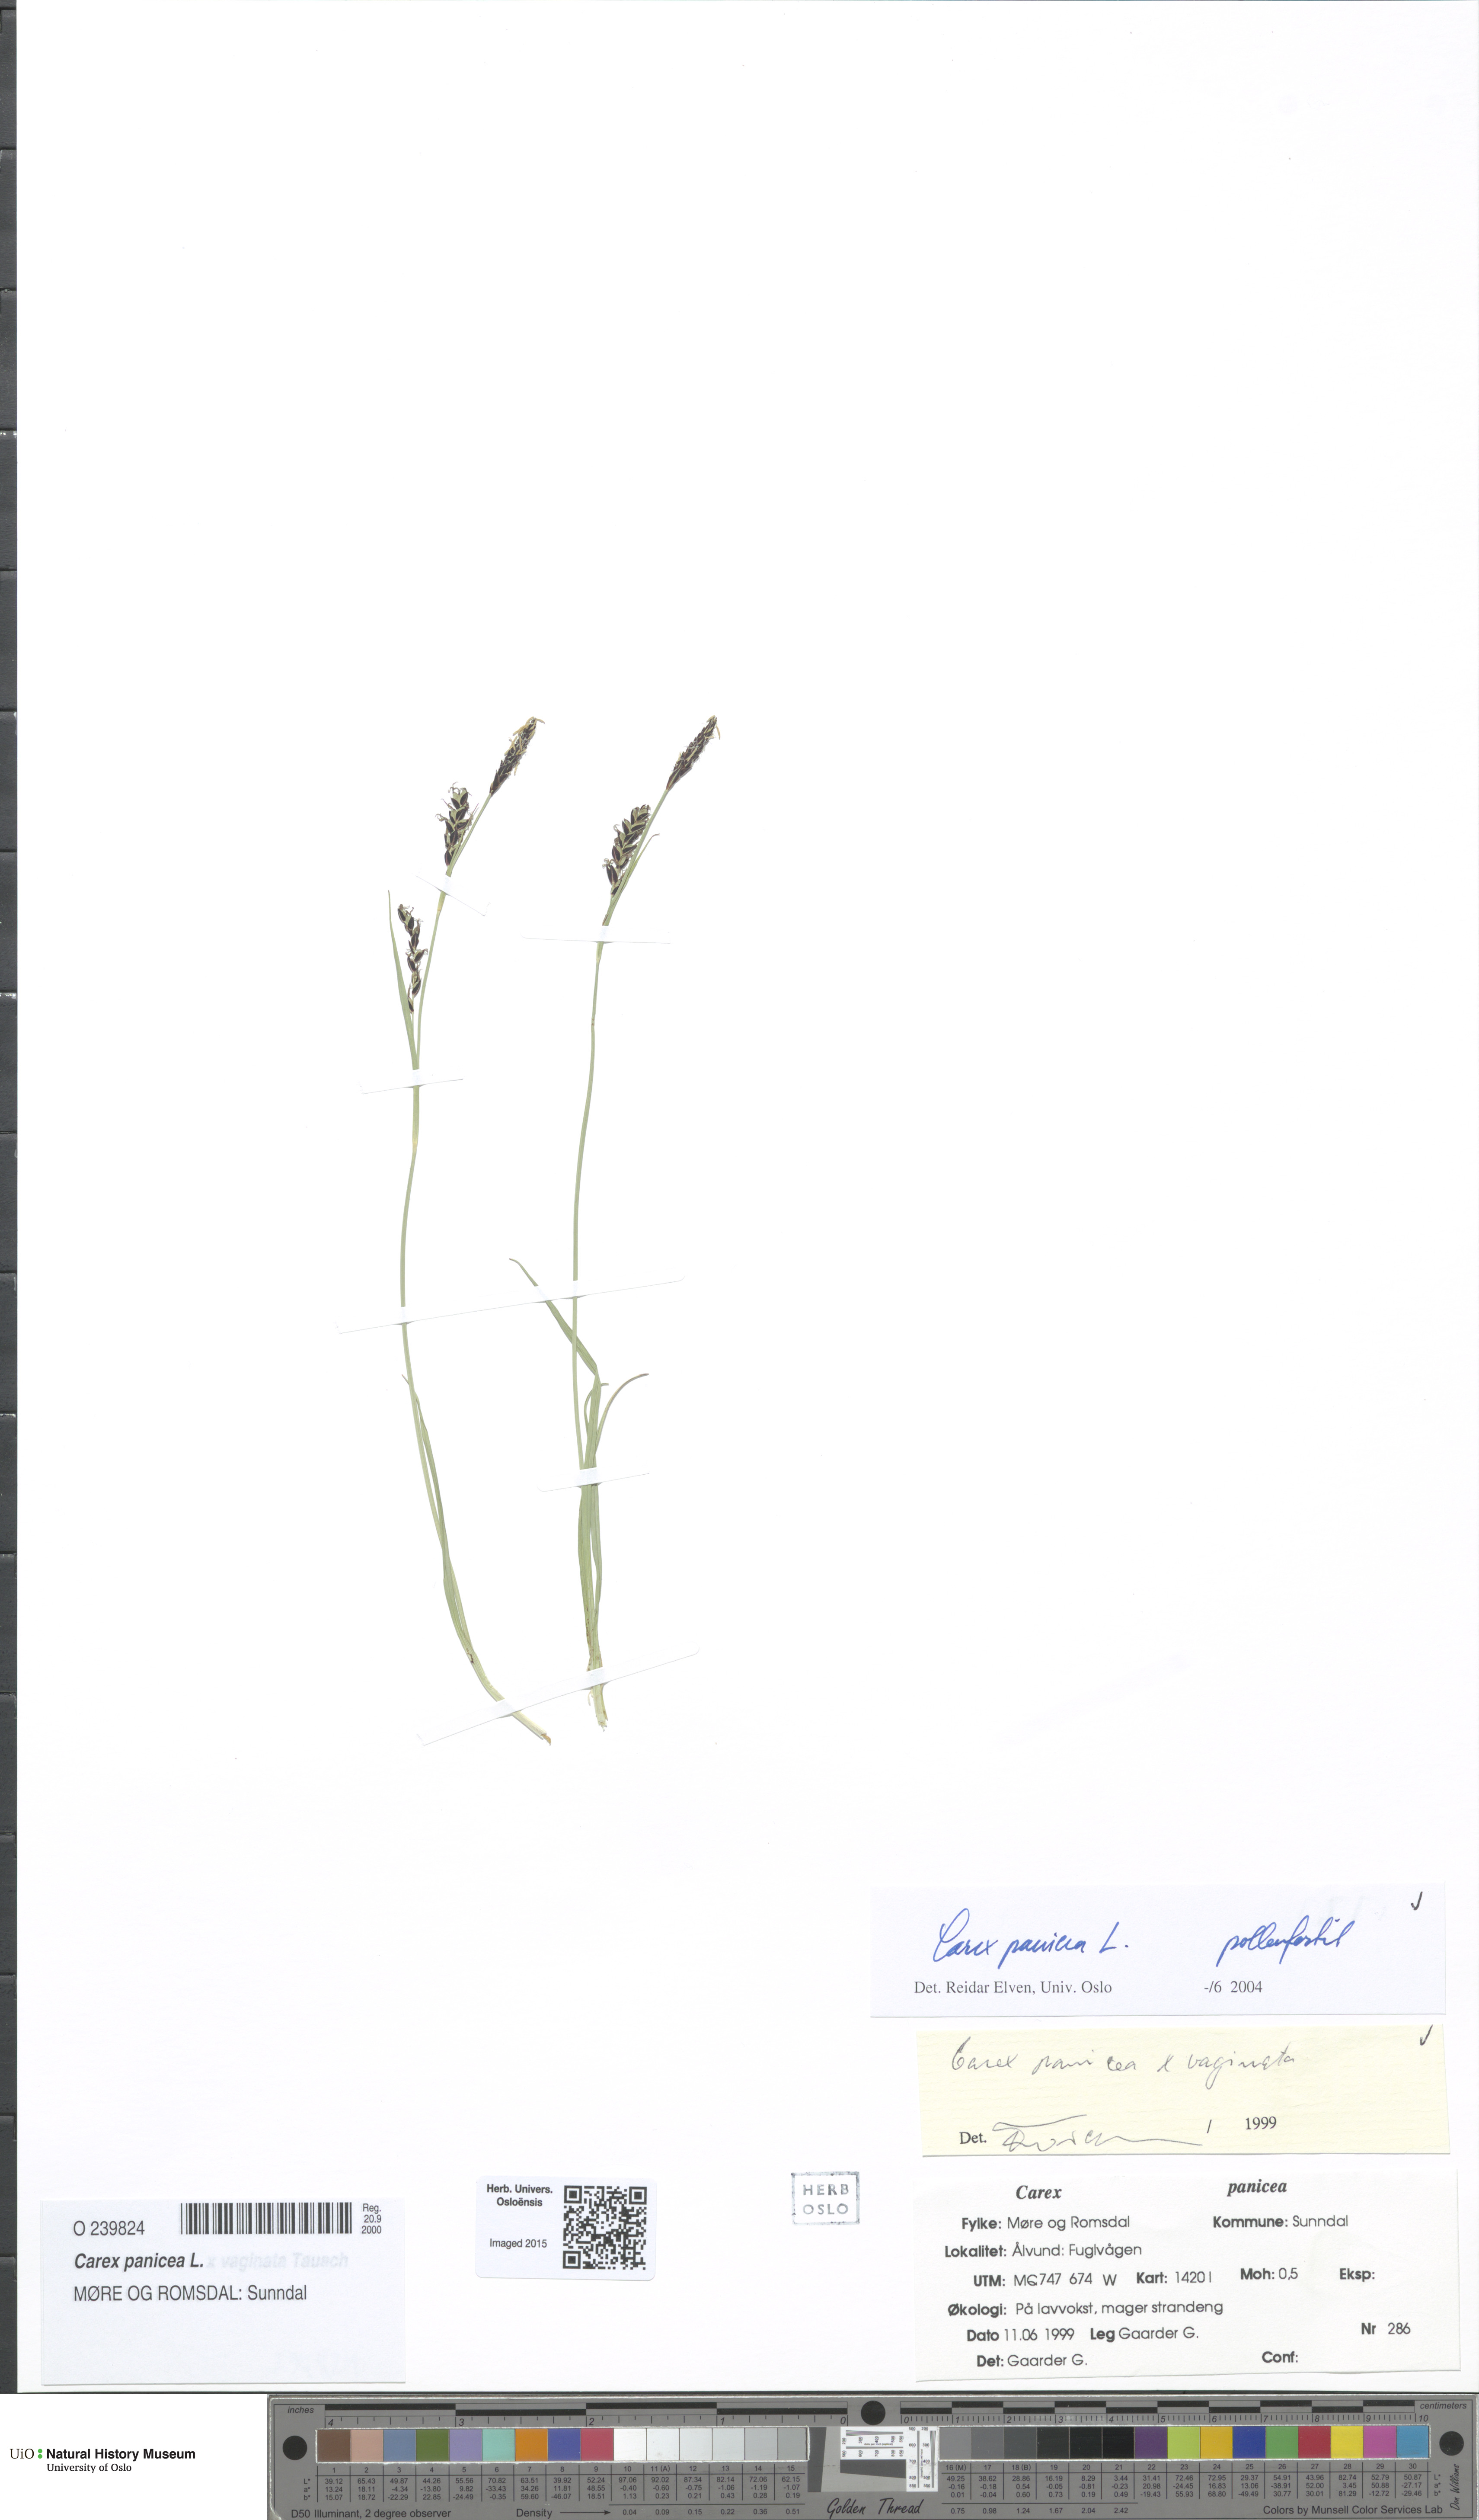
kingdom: Plantae
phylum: Tracheophyta
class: Liliopsida
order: Poales
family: Cyperaceae
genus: Carex
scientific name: Carex panicea
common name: Carnation sedge
